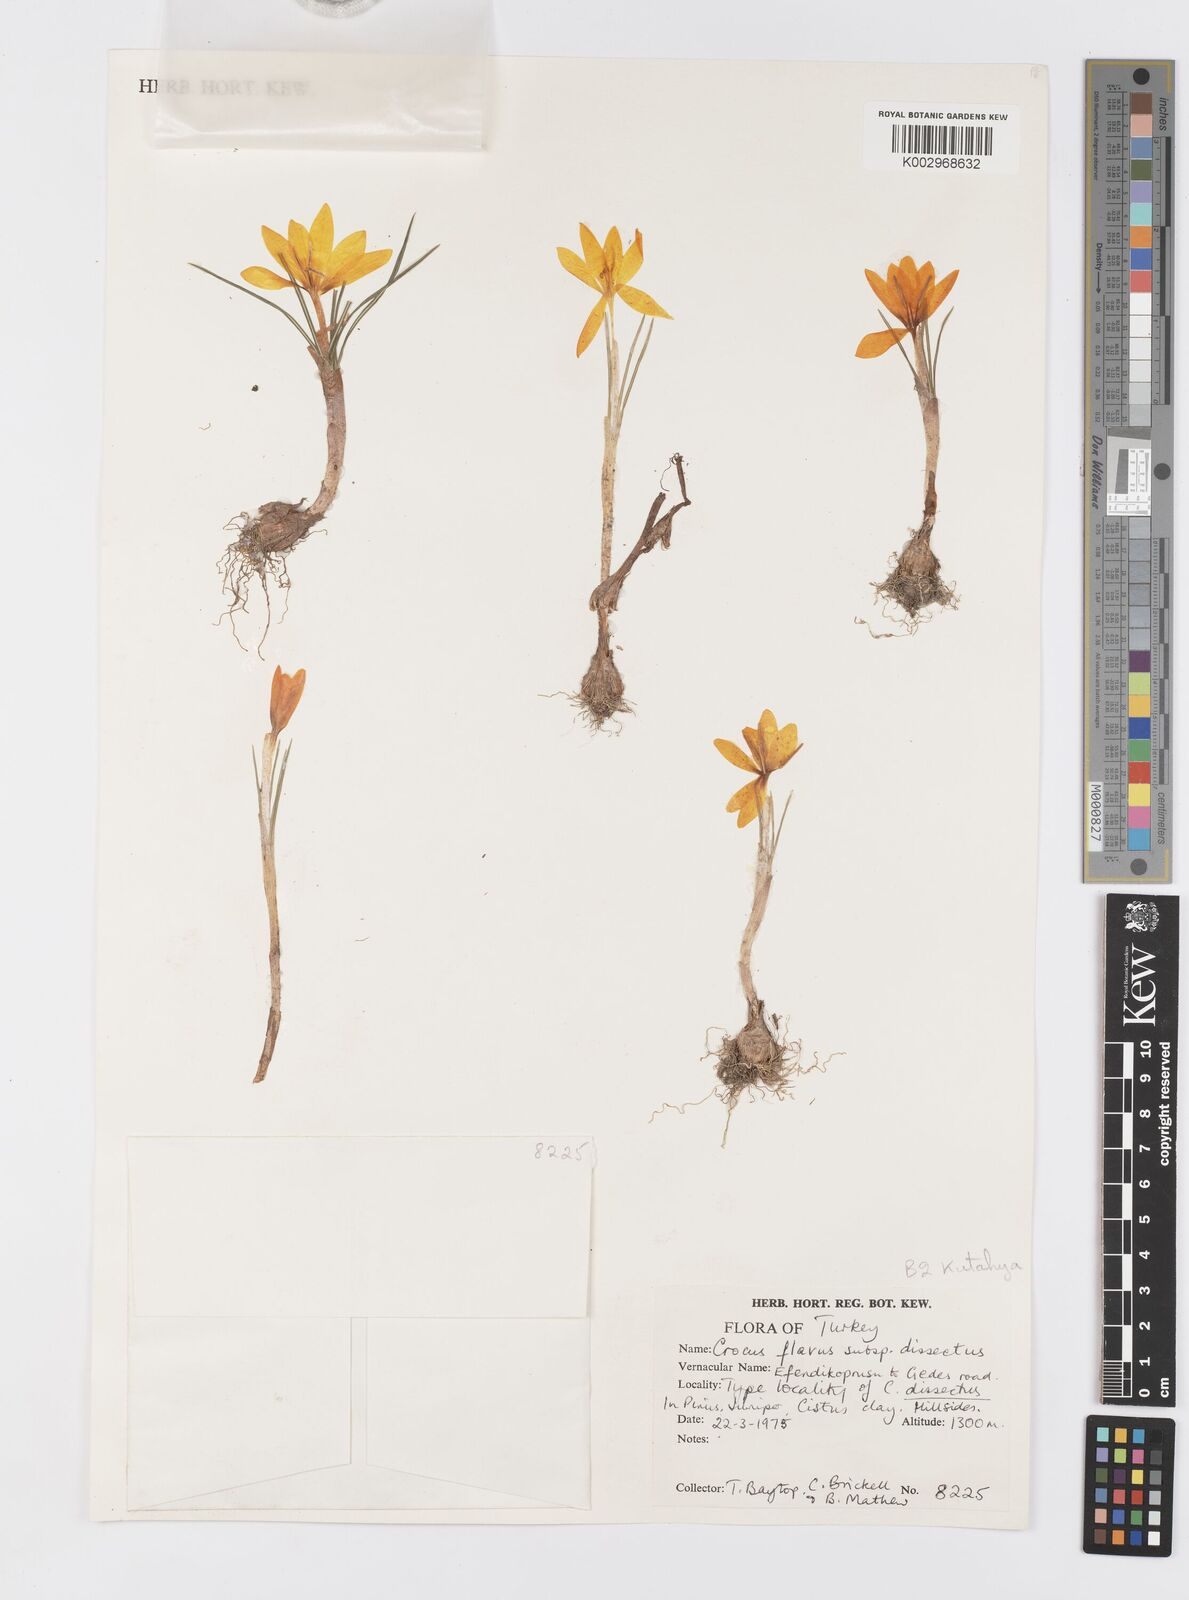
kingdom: Plantae
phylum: Tracheophyta
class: Liliopsida
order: Asparagales
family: Iridaceae
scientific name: Iridaceae
